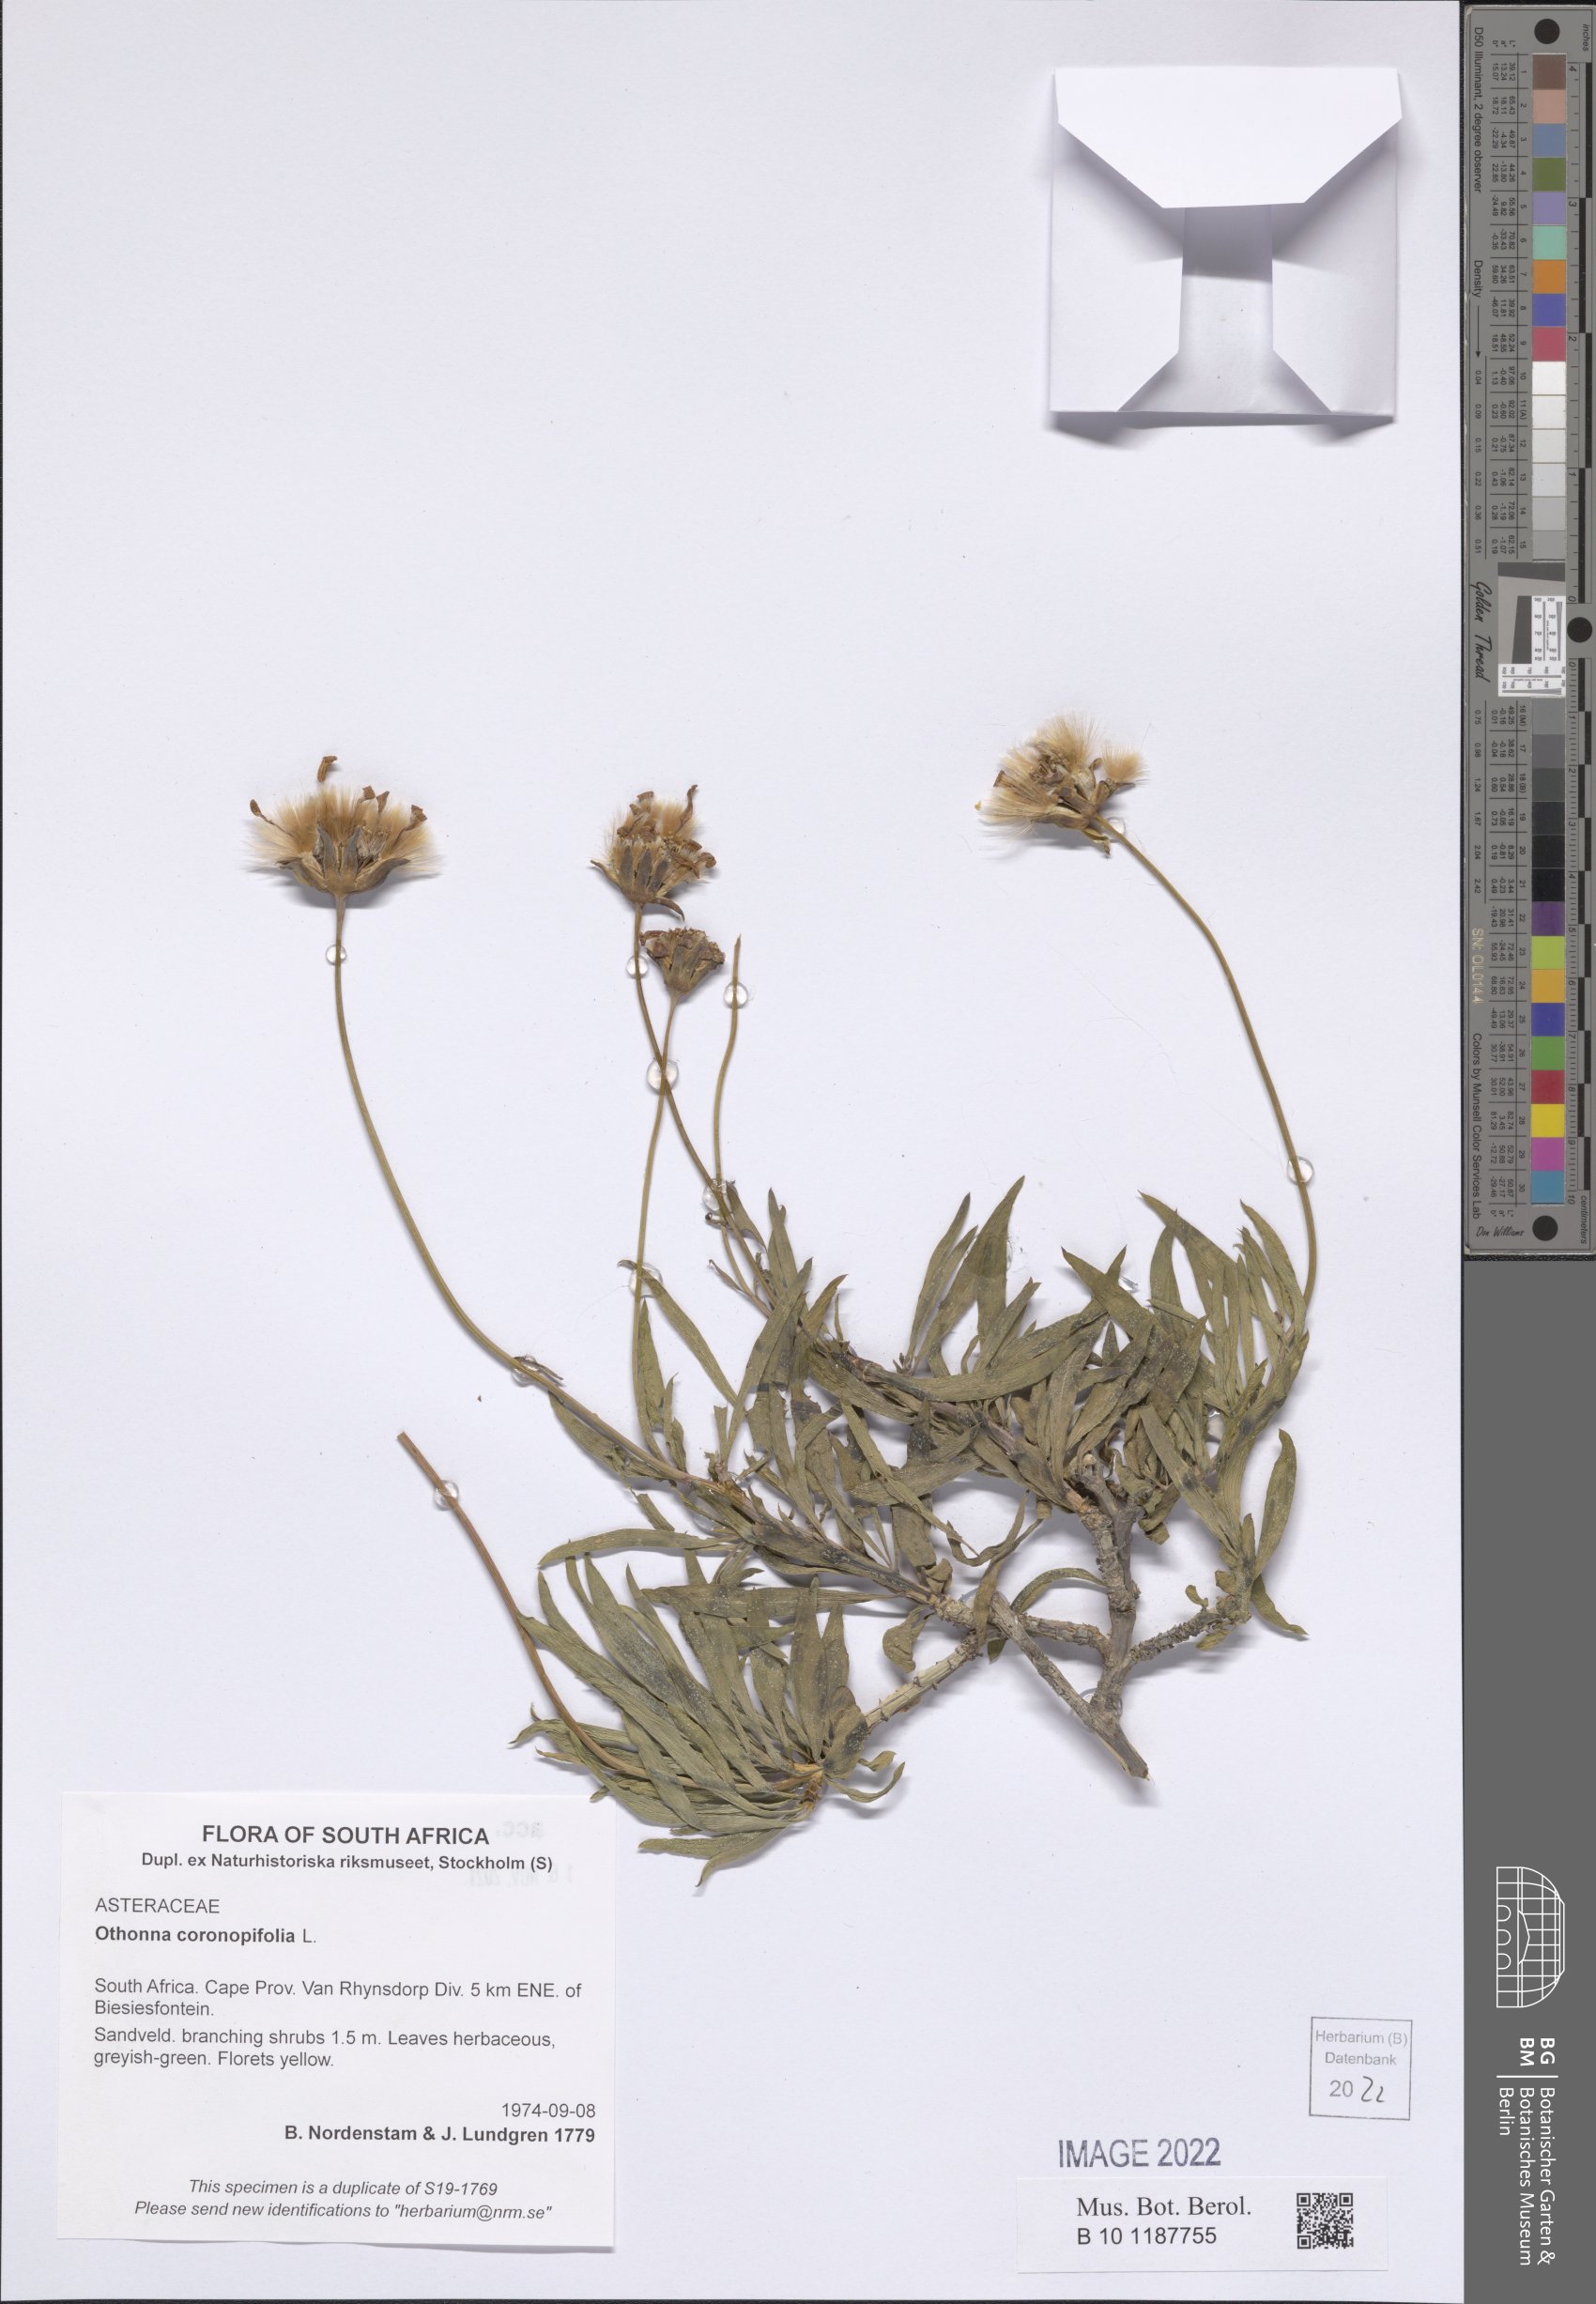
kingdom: Plantae
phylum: Tracheophyta
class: Magnoliopsida
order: Asterales
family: Asteraceae
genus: Othonna
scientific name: Othonna coronopifolia
